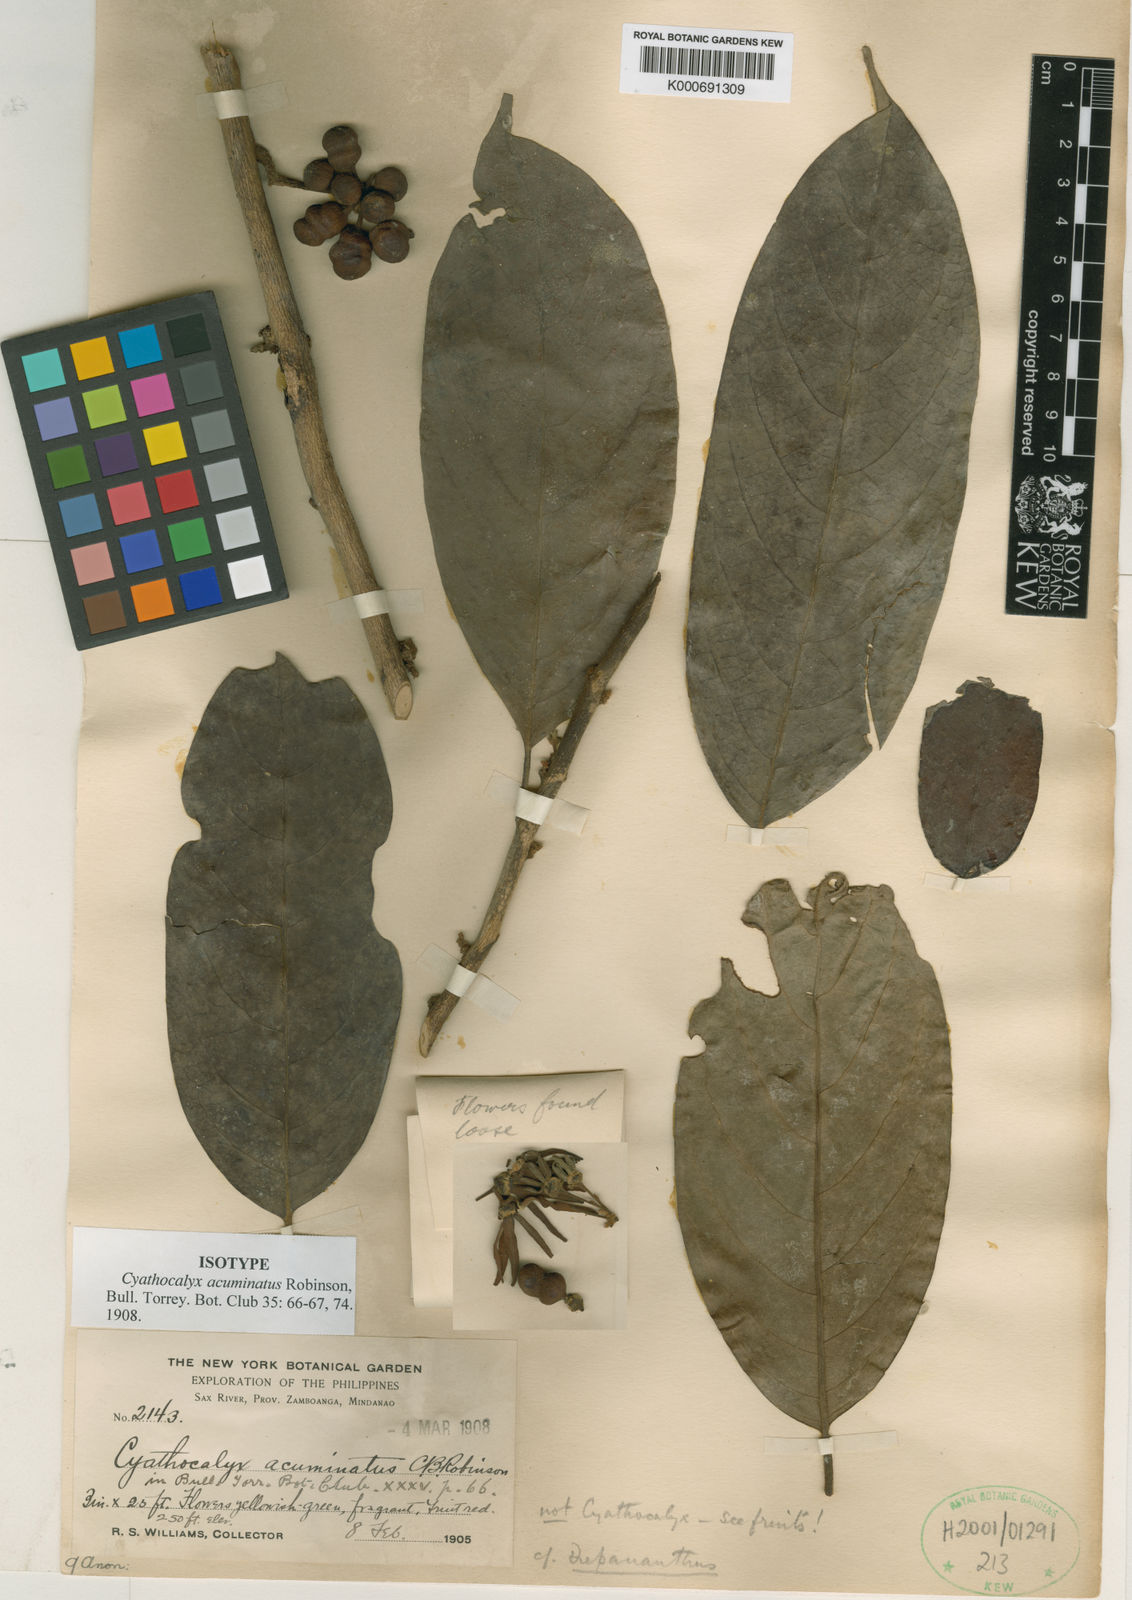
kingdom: Plantae
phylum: Tracheophyta
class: Magnoliopsida
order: Magnoliales
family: Annonaceae
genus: Drepananthus
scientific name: Drepananthus acuminatus
